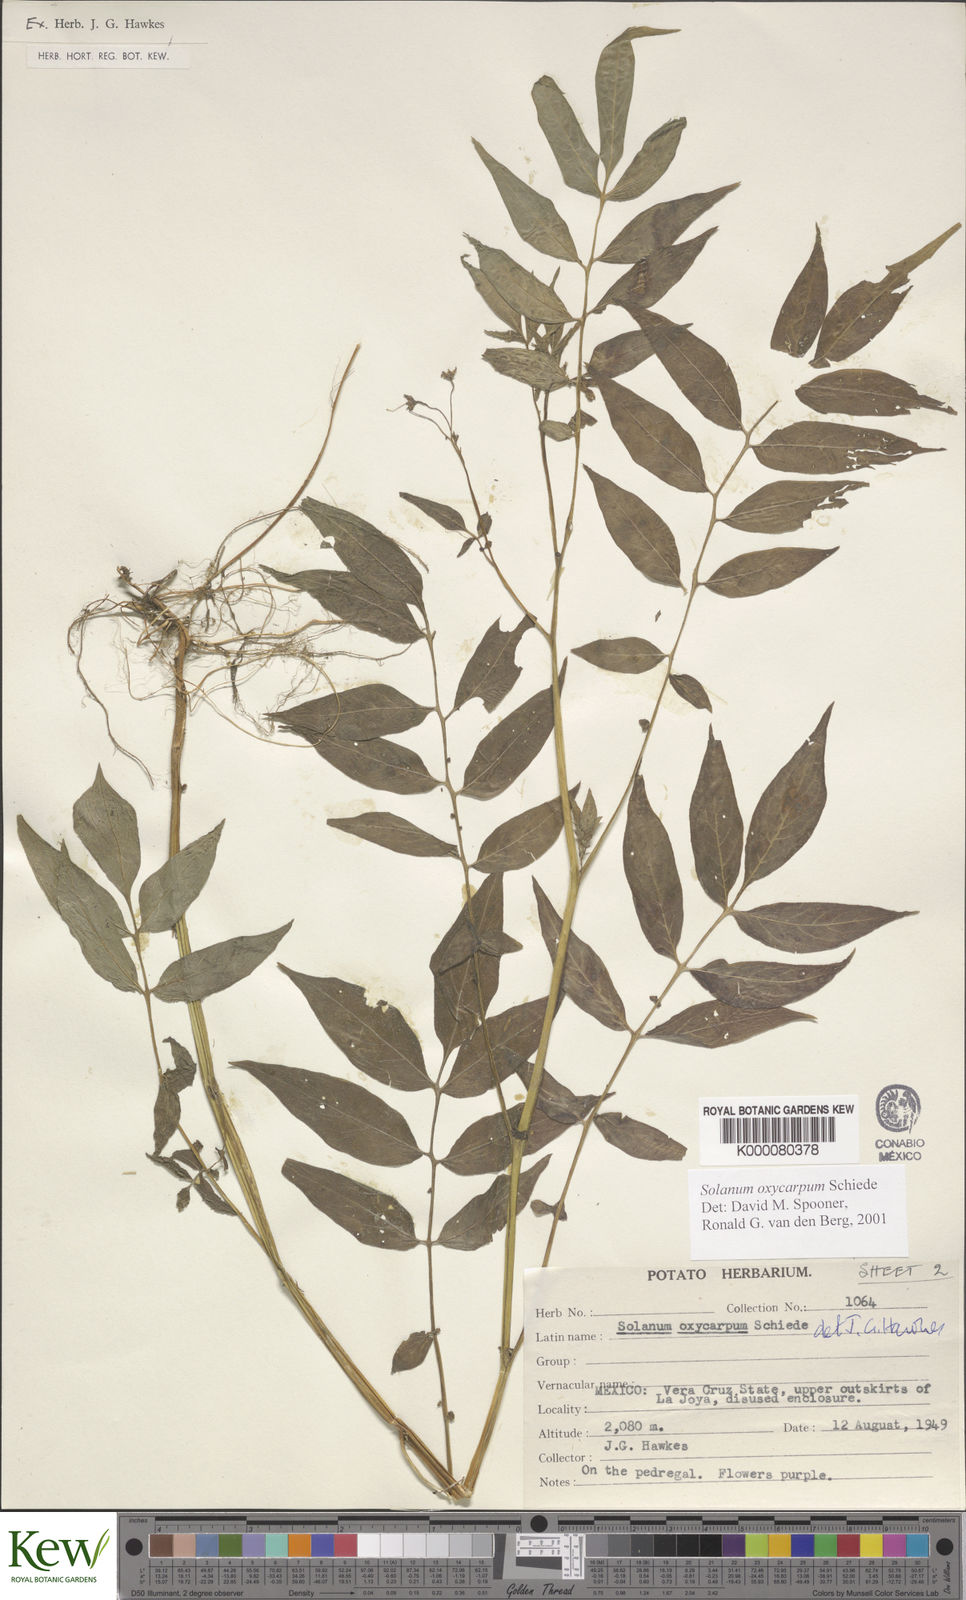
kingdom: Plantae
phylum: Tracheophyta
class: Magnoliopsida
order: Solanales
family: Solanaceae
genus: Solanum
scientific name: Solanum oxycarpum
